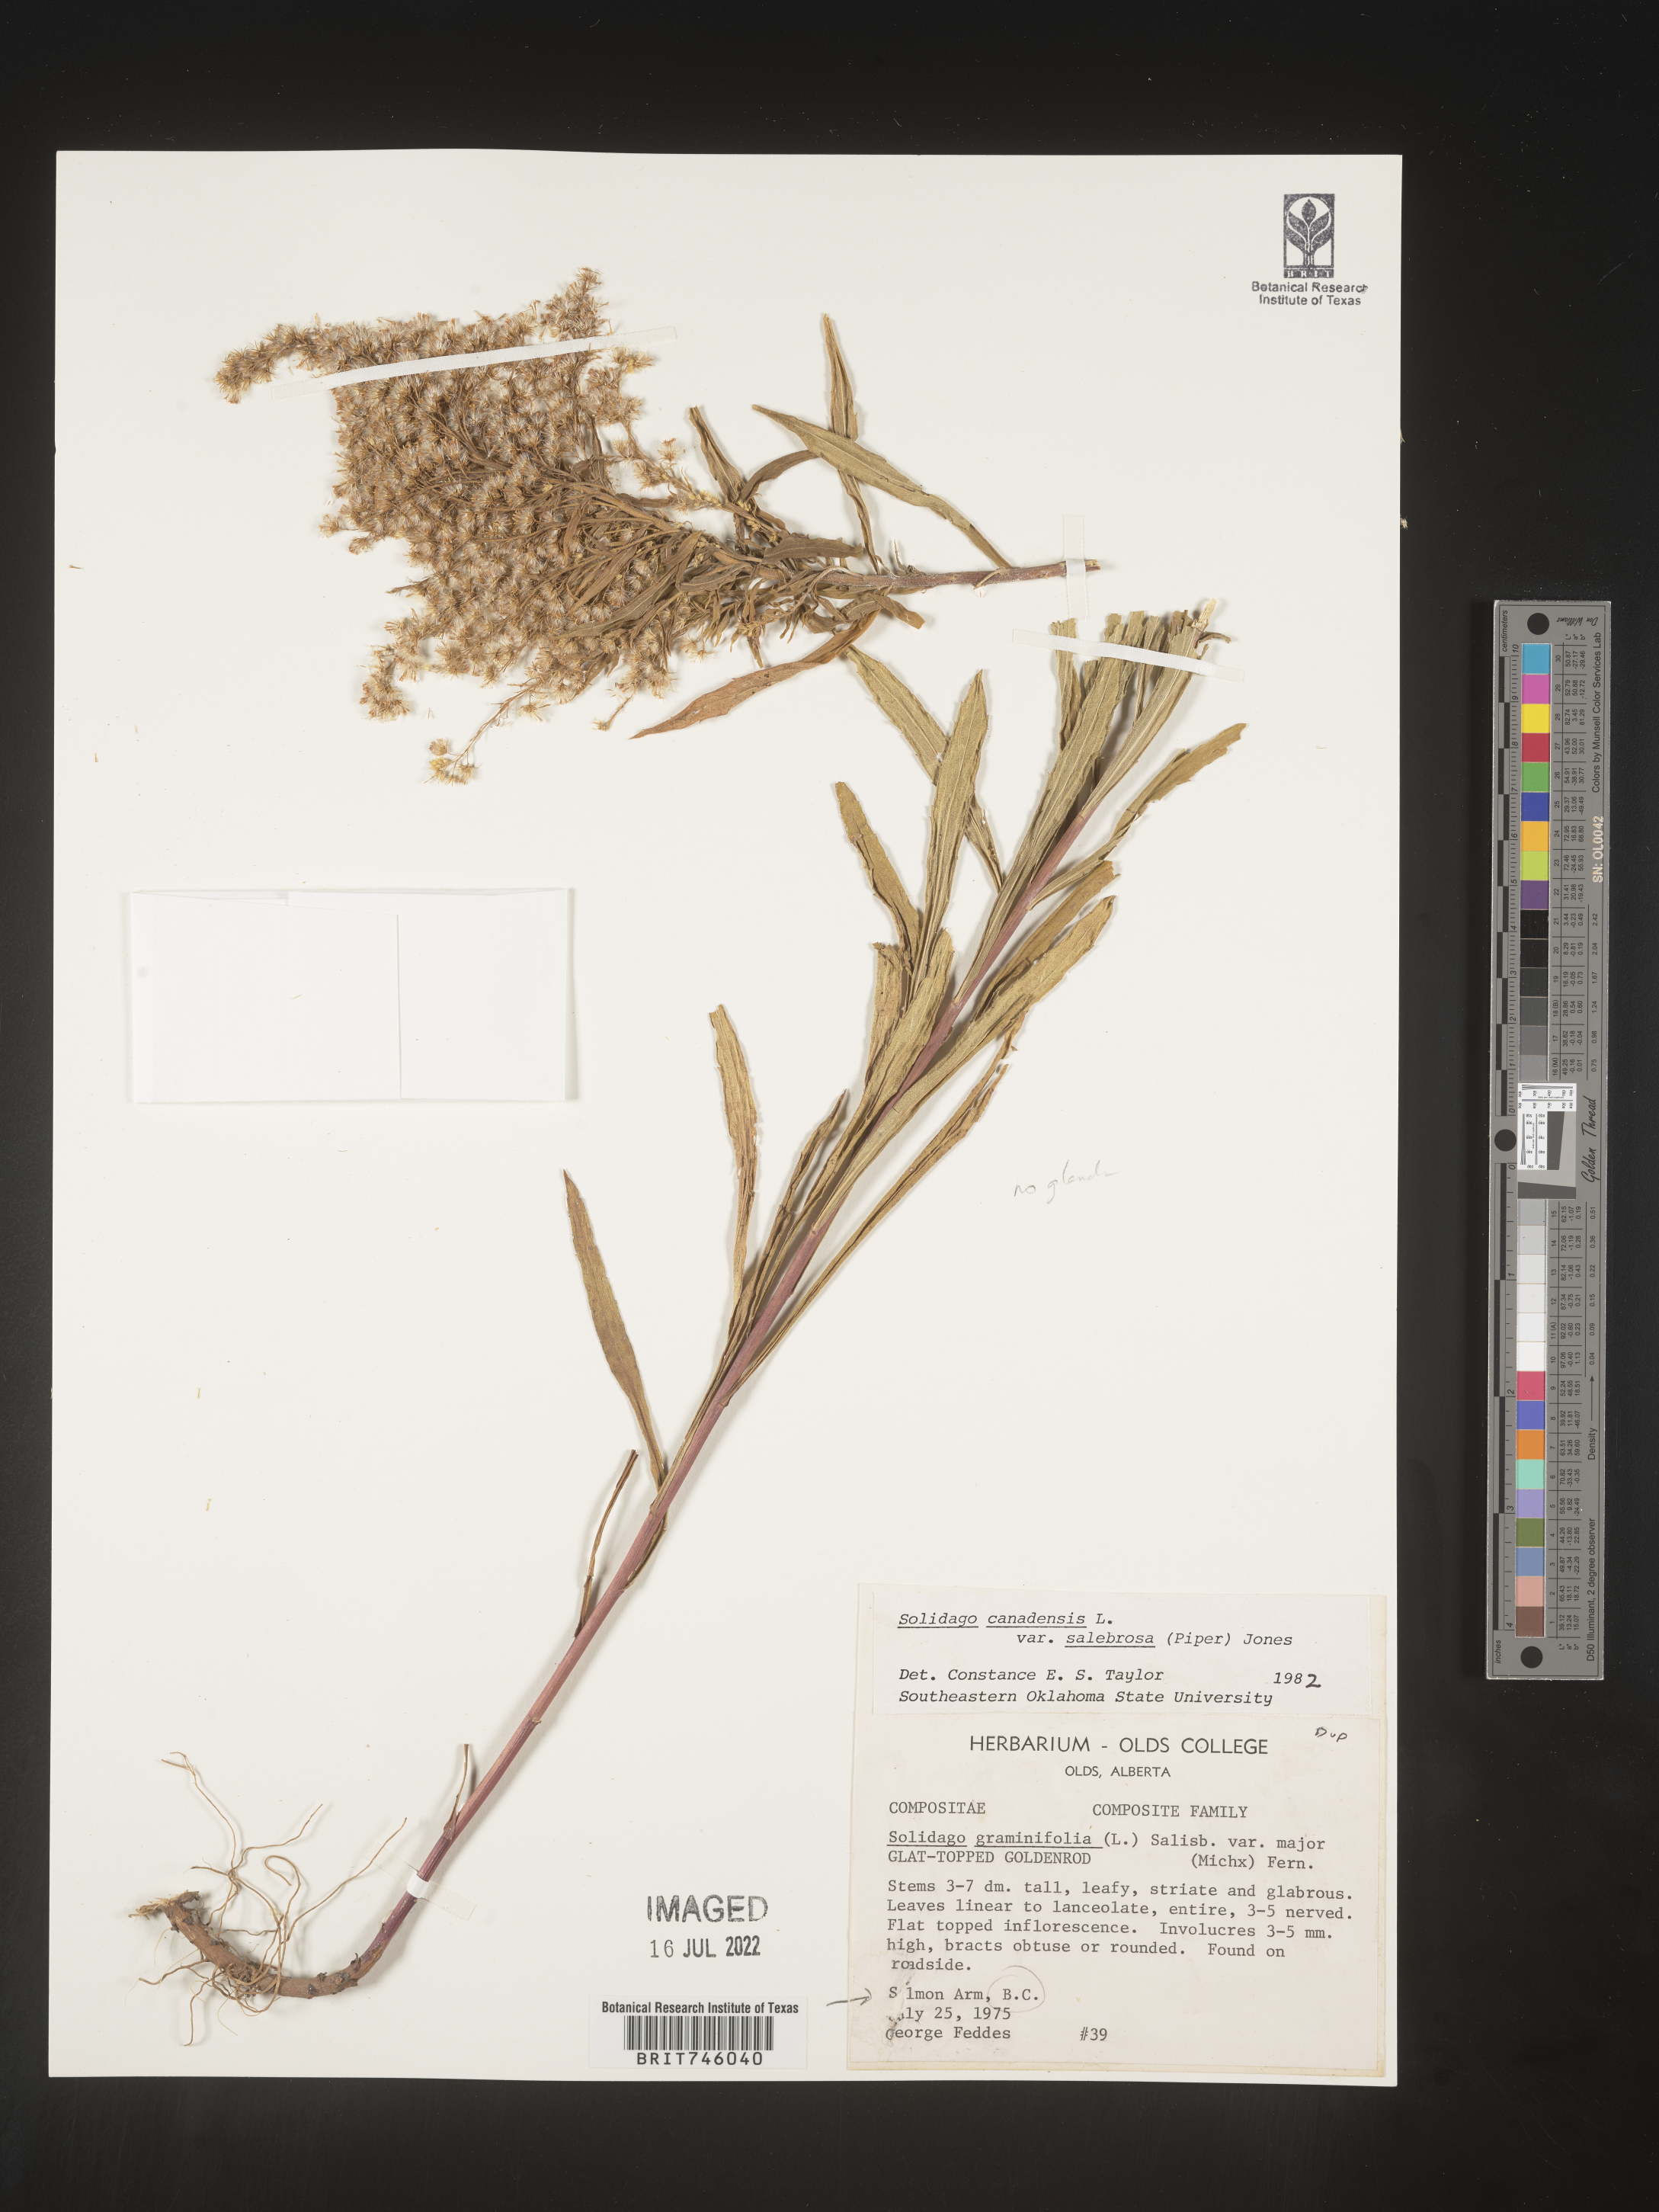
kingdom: Plantae
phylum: Tracheophyta
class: Magnoliopsida
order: Asterales
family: Asteraceae
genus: Solidago
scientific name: Solidago elongata
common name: Cascade canada goldenrod
